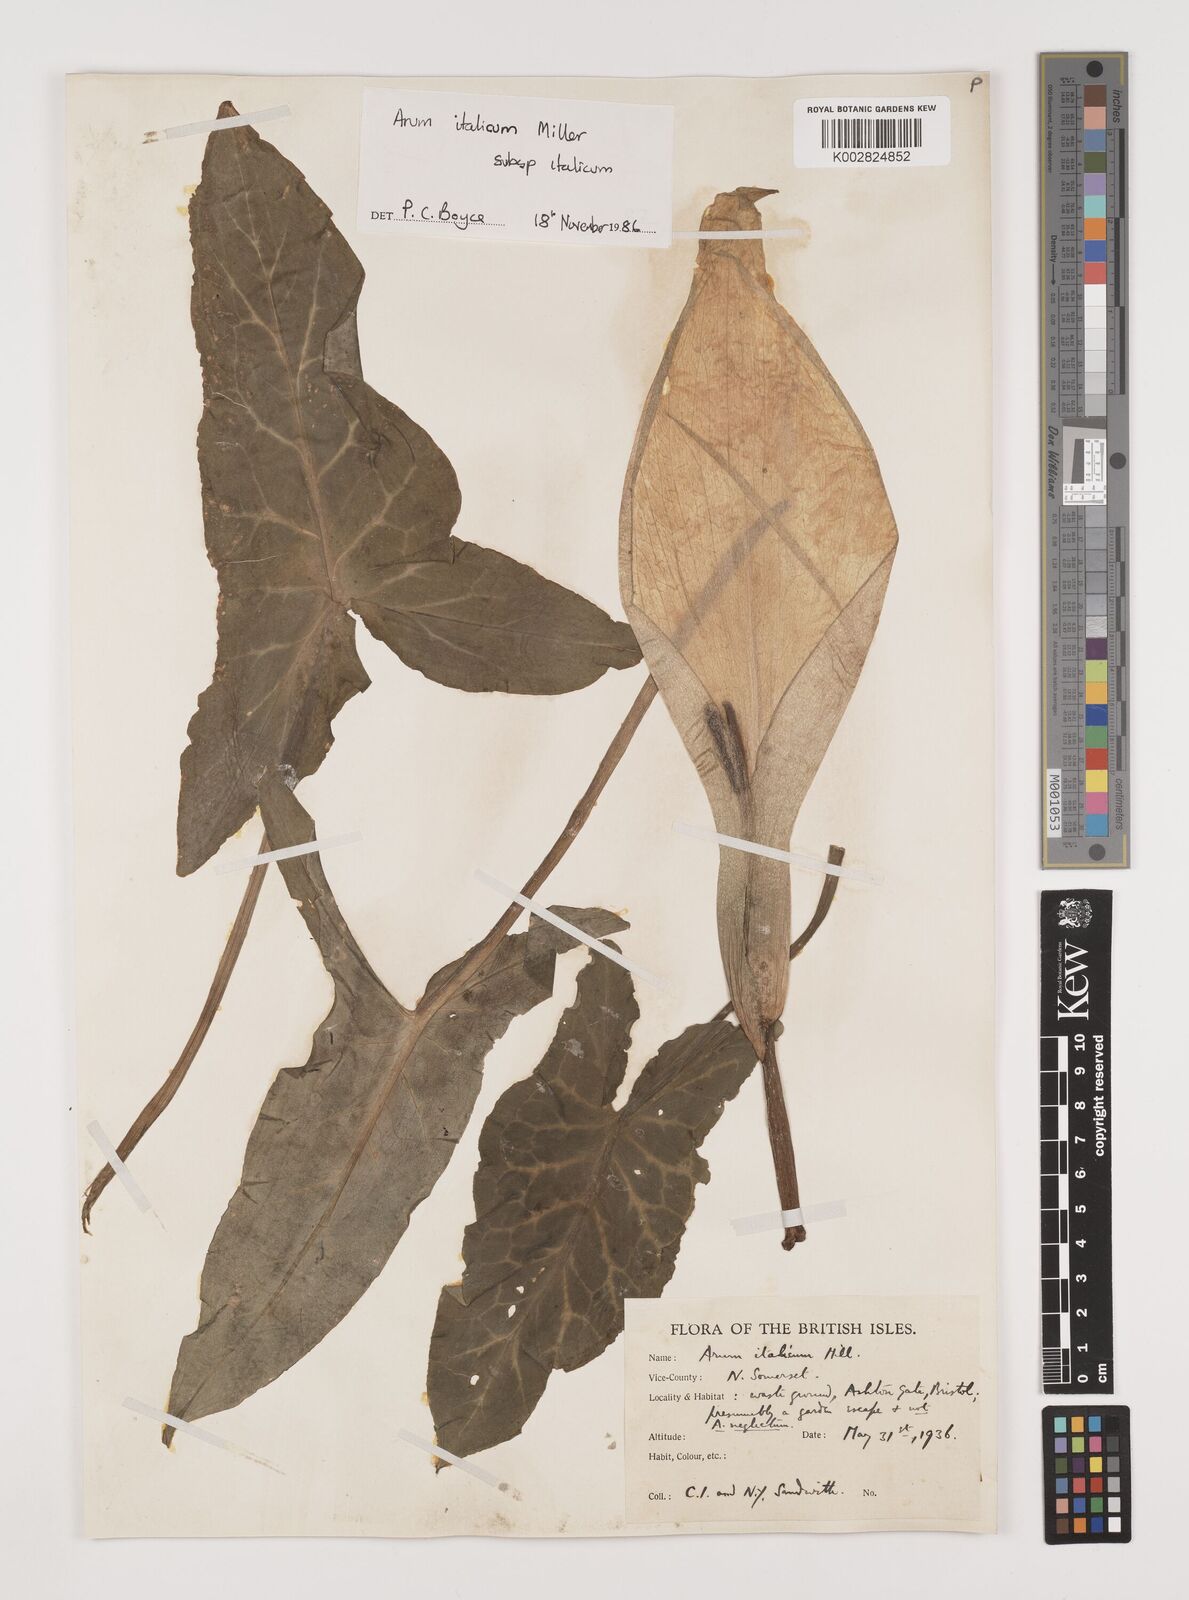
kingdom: Plantae
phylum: Tracheophyta
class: Liliopsida
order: Alismatales
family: Araceae
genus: Arum
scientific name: Arum italicum
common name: Italian lords-and-ladies
